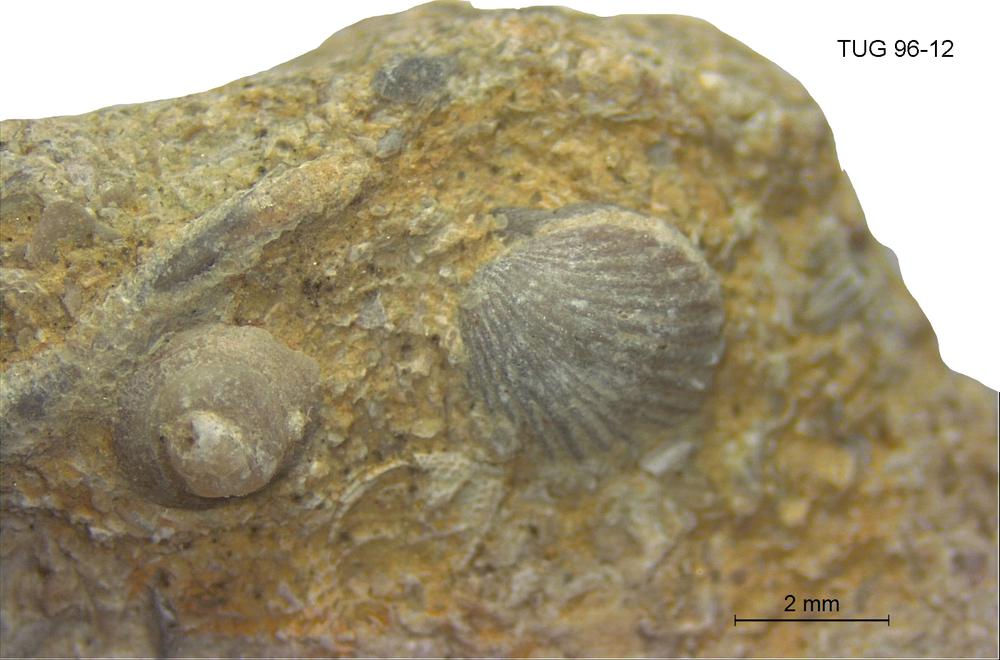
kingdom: Animalia
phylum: Mollusca
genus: Anticalyptraea
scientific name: Anticalyptraea
